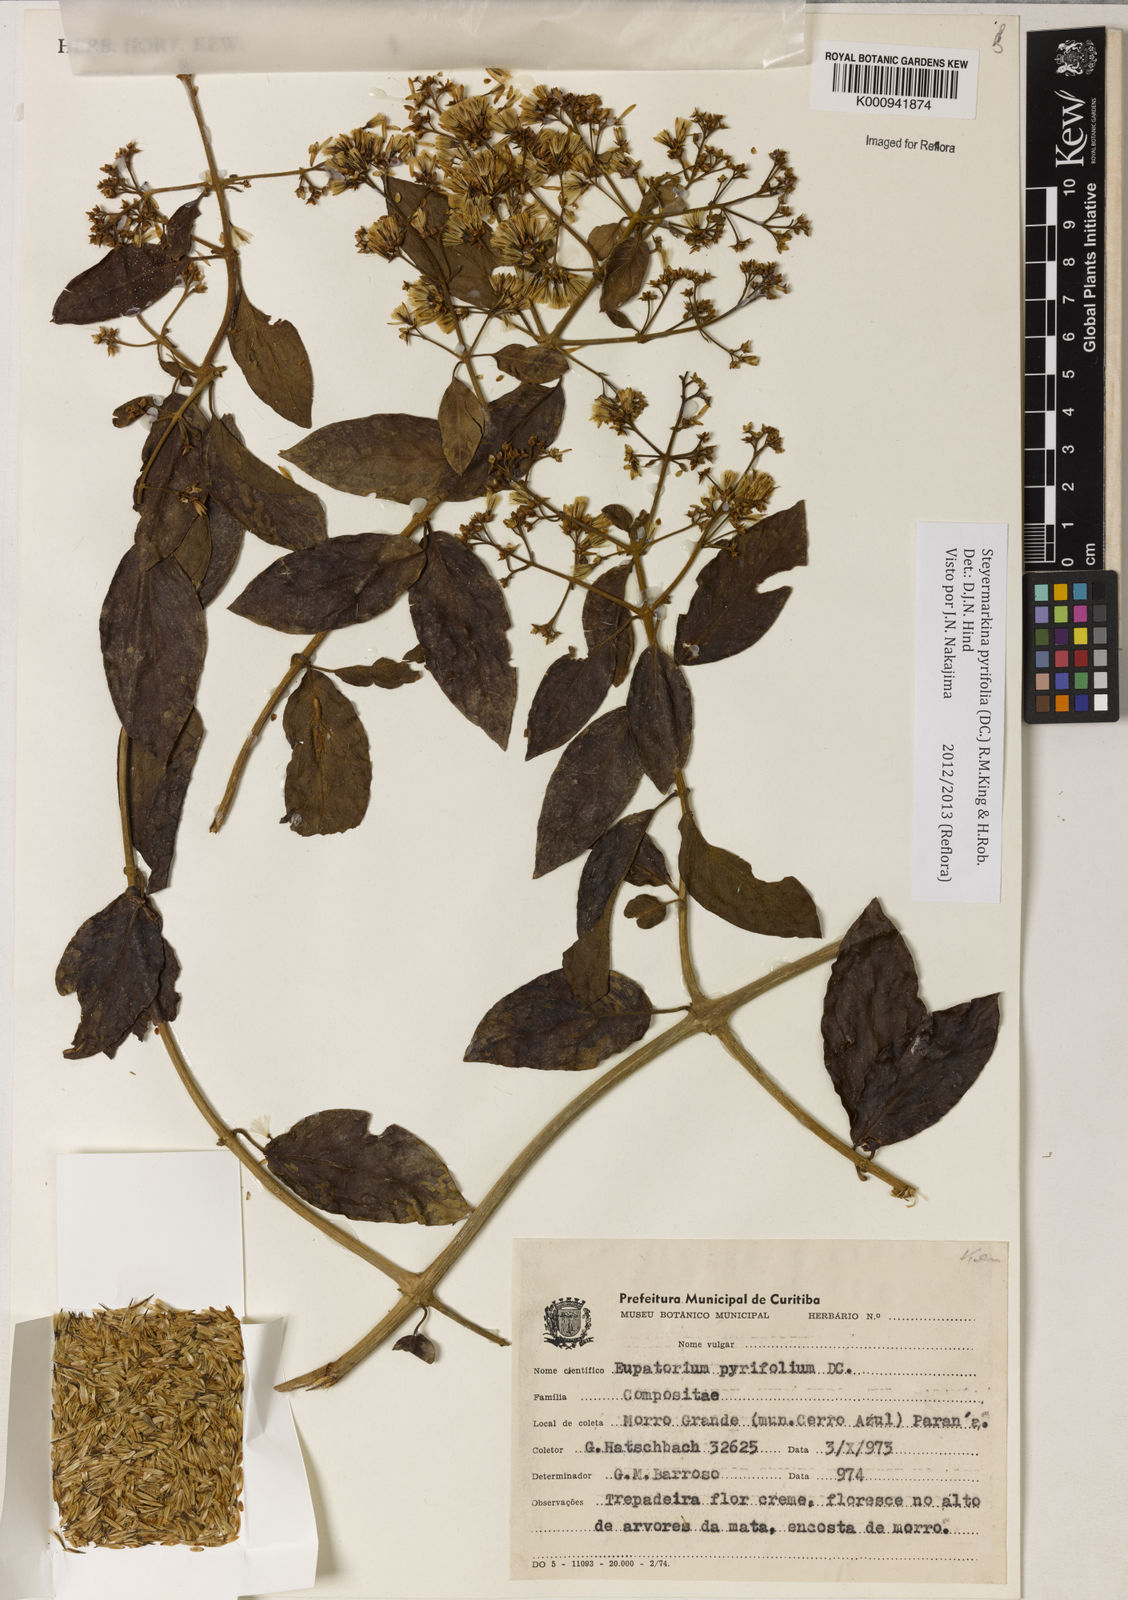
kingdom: Plantae
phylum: Tracheophyta
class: Magnoliopsida
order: Asterales
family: Asteraceae
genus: Steyermarkina
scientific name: Steyermarkina pyrifolia
